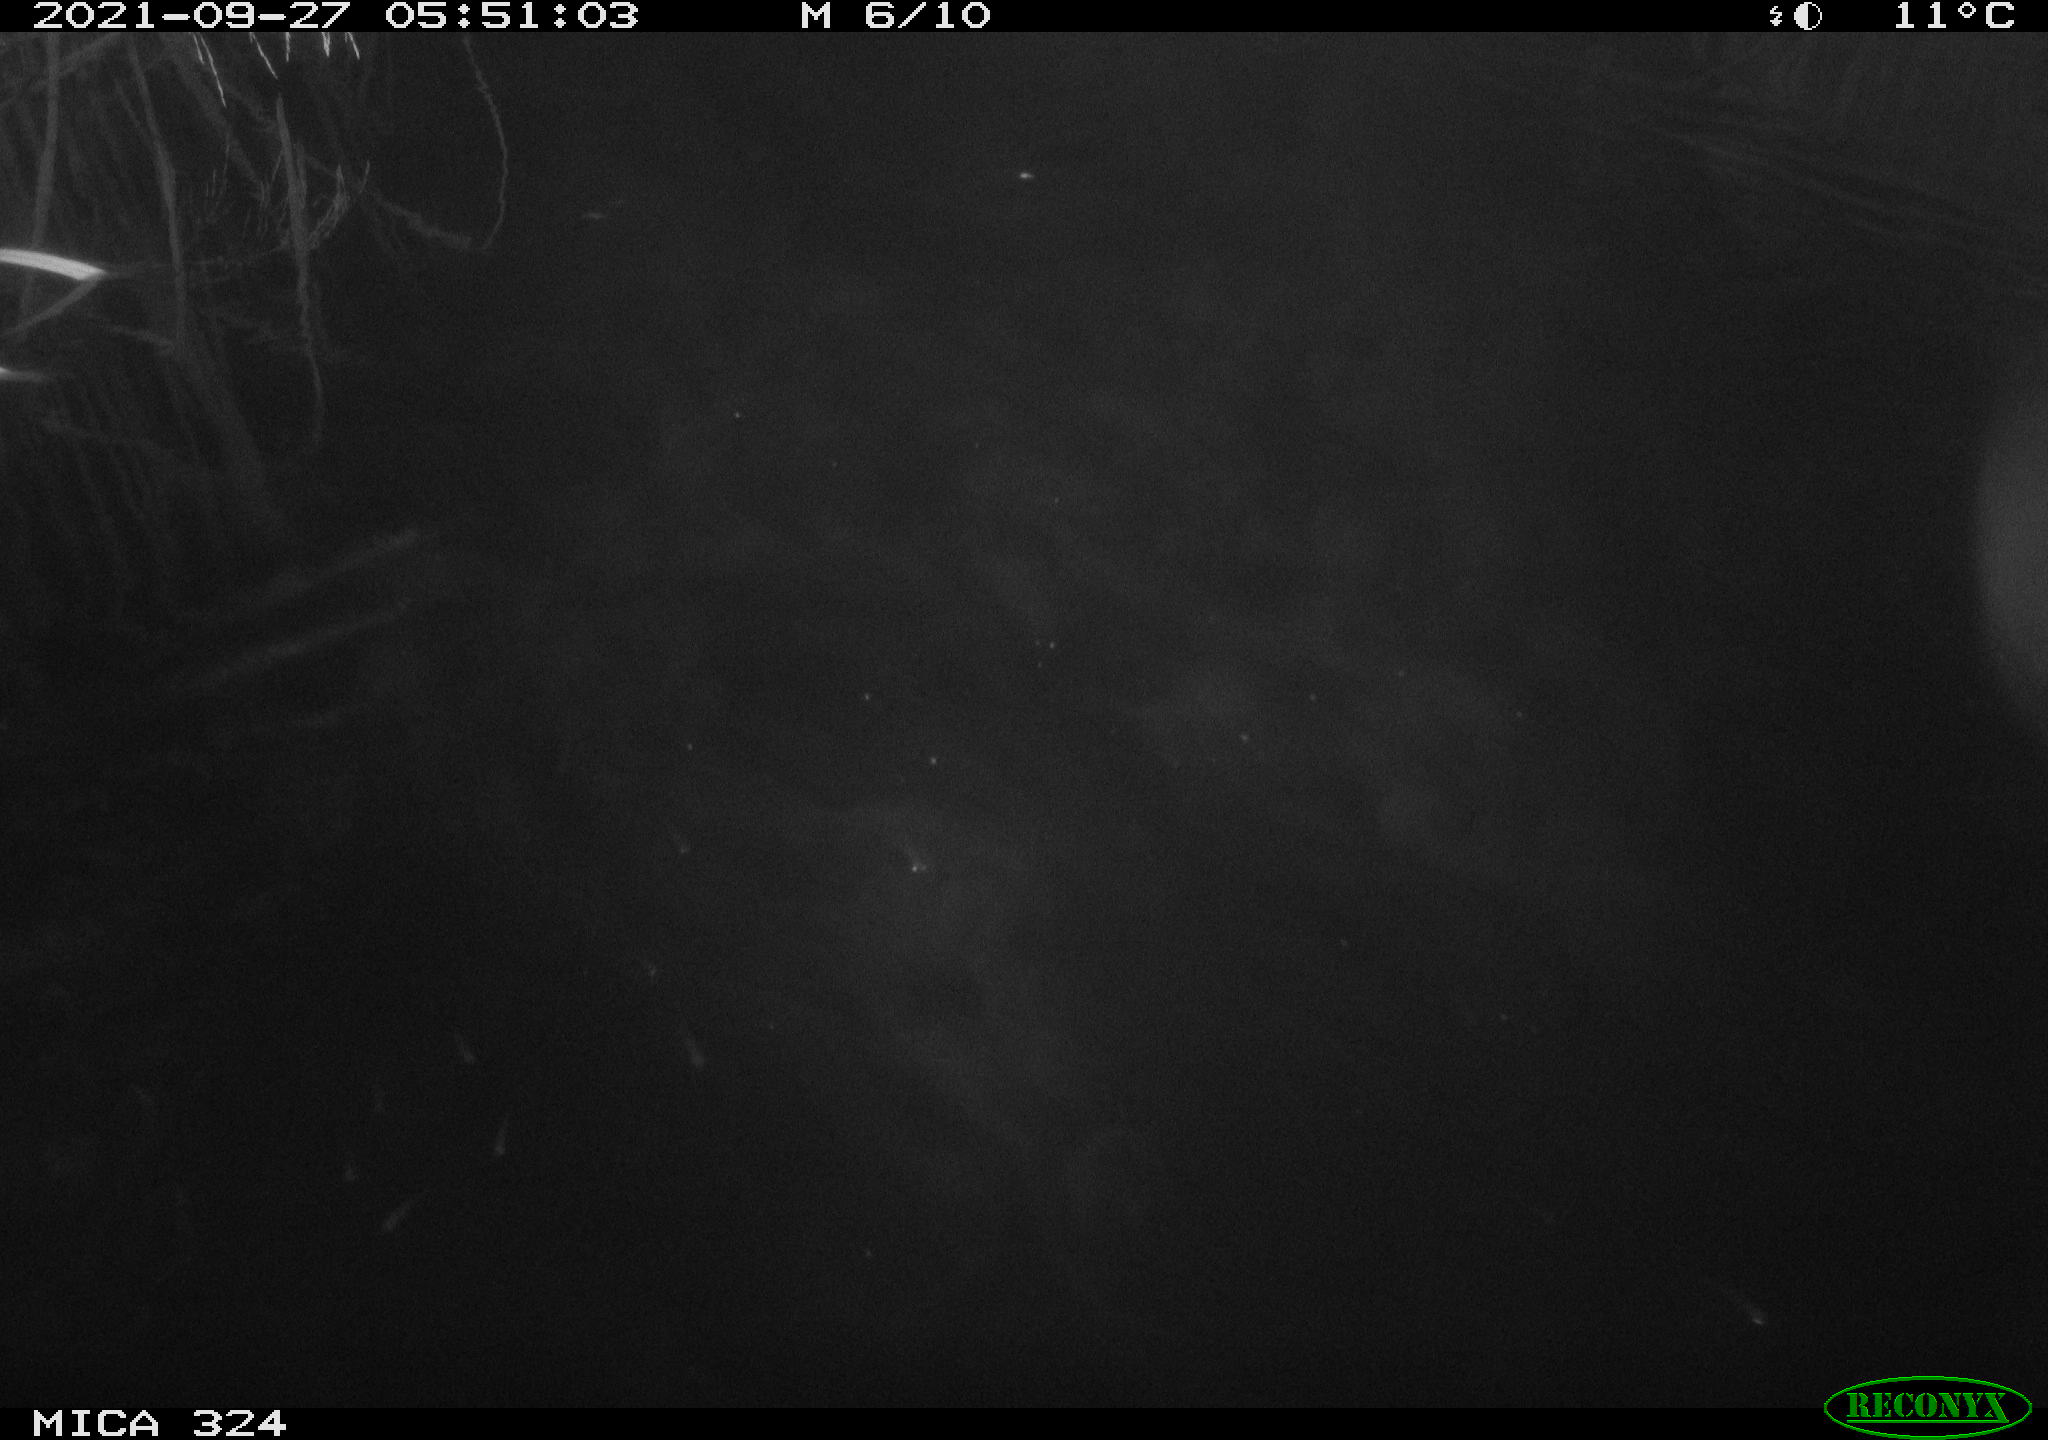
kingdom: Animalia
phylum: Chordata
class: Mammalia
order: Rodentia
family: Cricetidae
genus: Ondatra
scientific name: Ondatra zibethicus
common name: Muskrat
